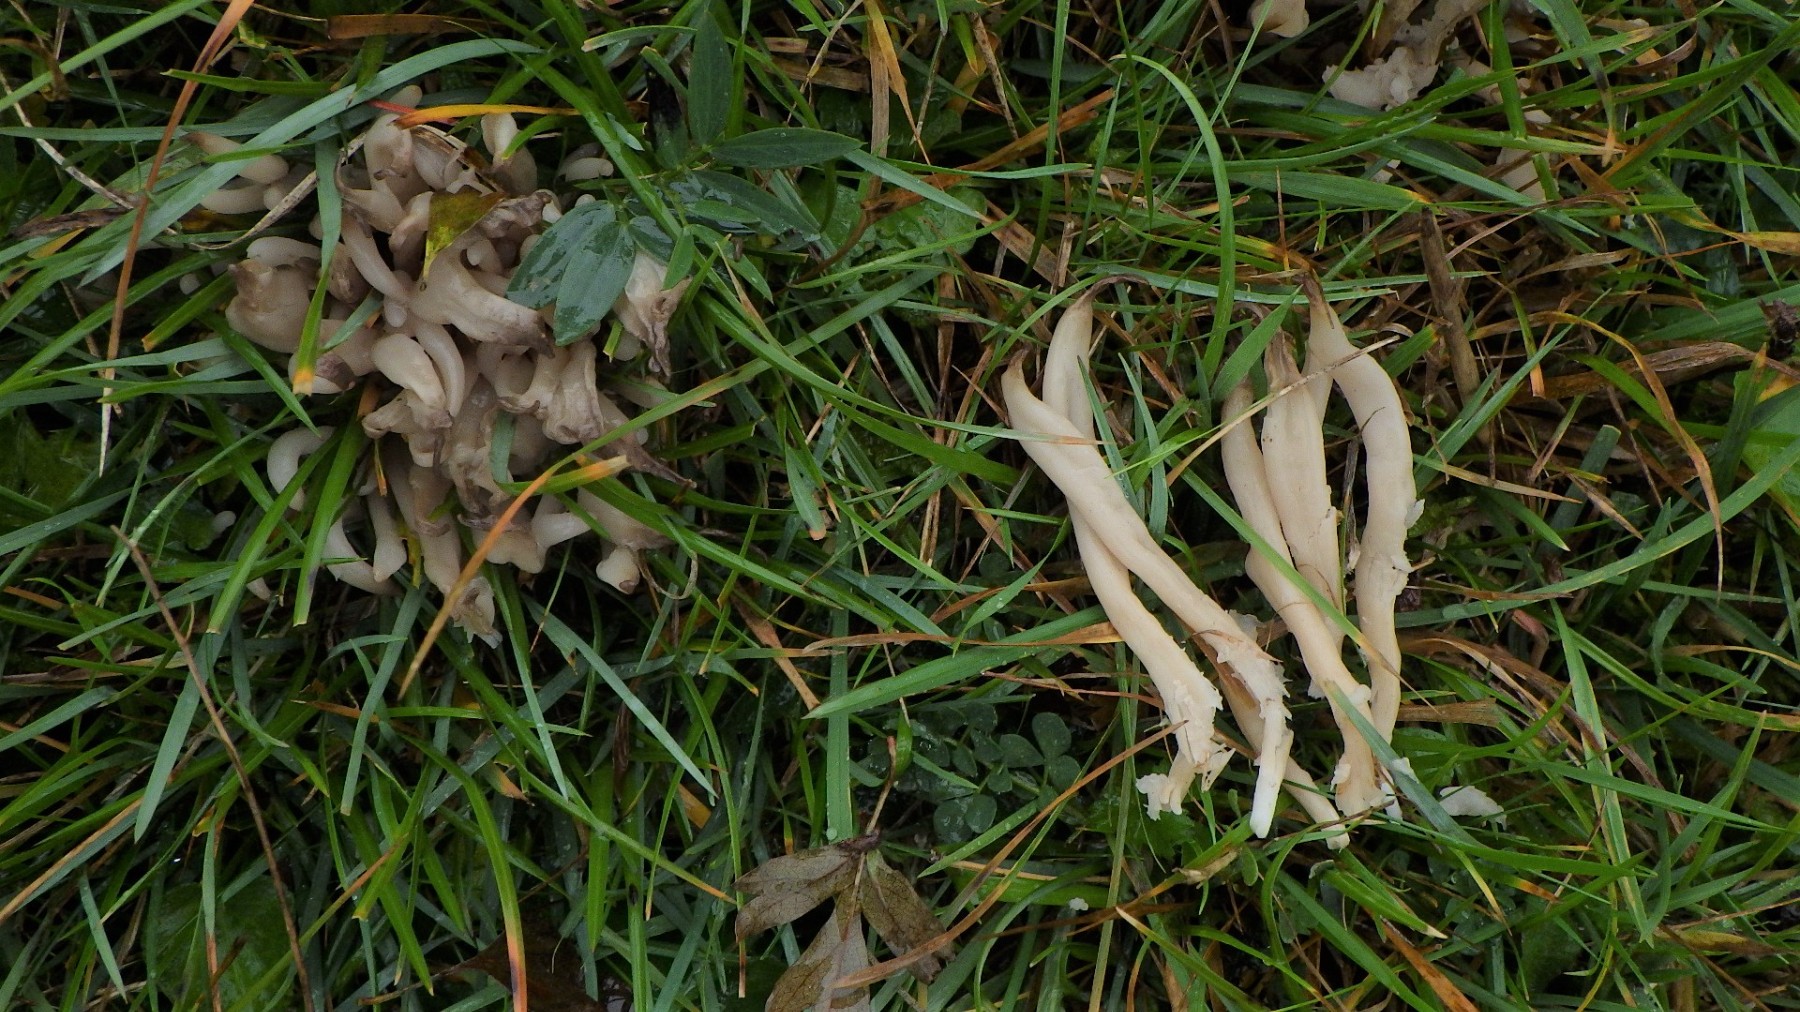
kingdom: Fungi
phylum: Basidiomycota
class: Agaricomycetes
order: Agaricales
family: Clavariaceae
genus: Clavaria
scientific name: Clavaria fumosa
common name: røggrå køllesvamp
